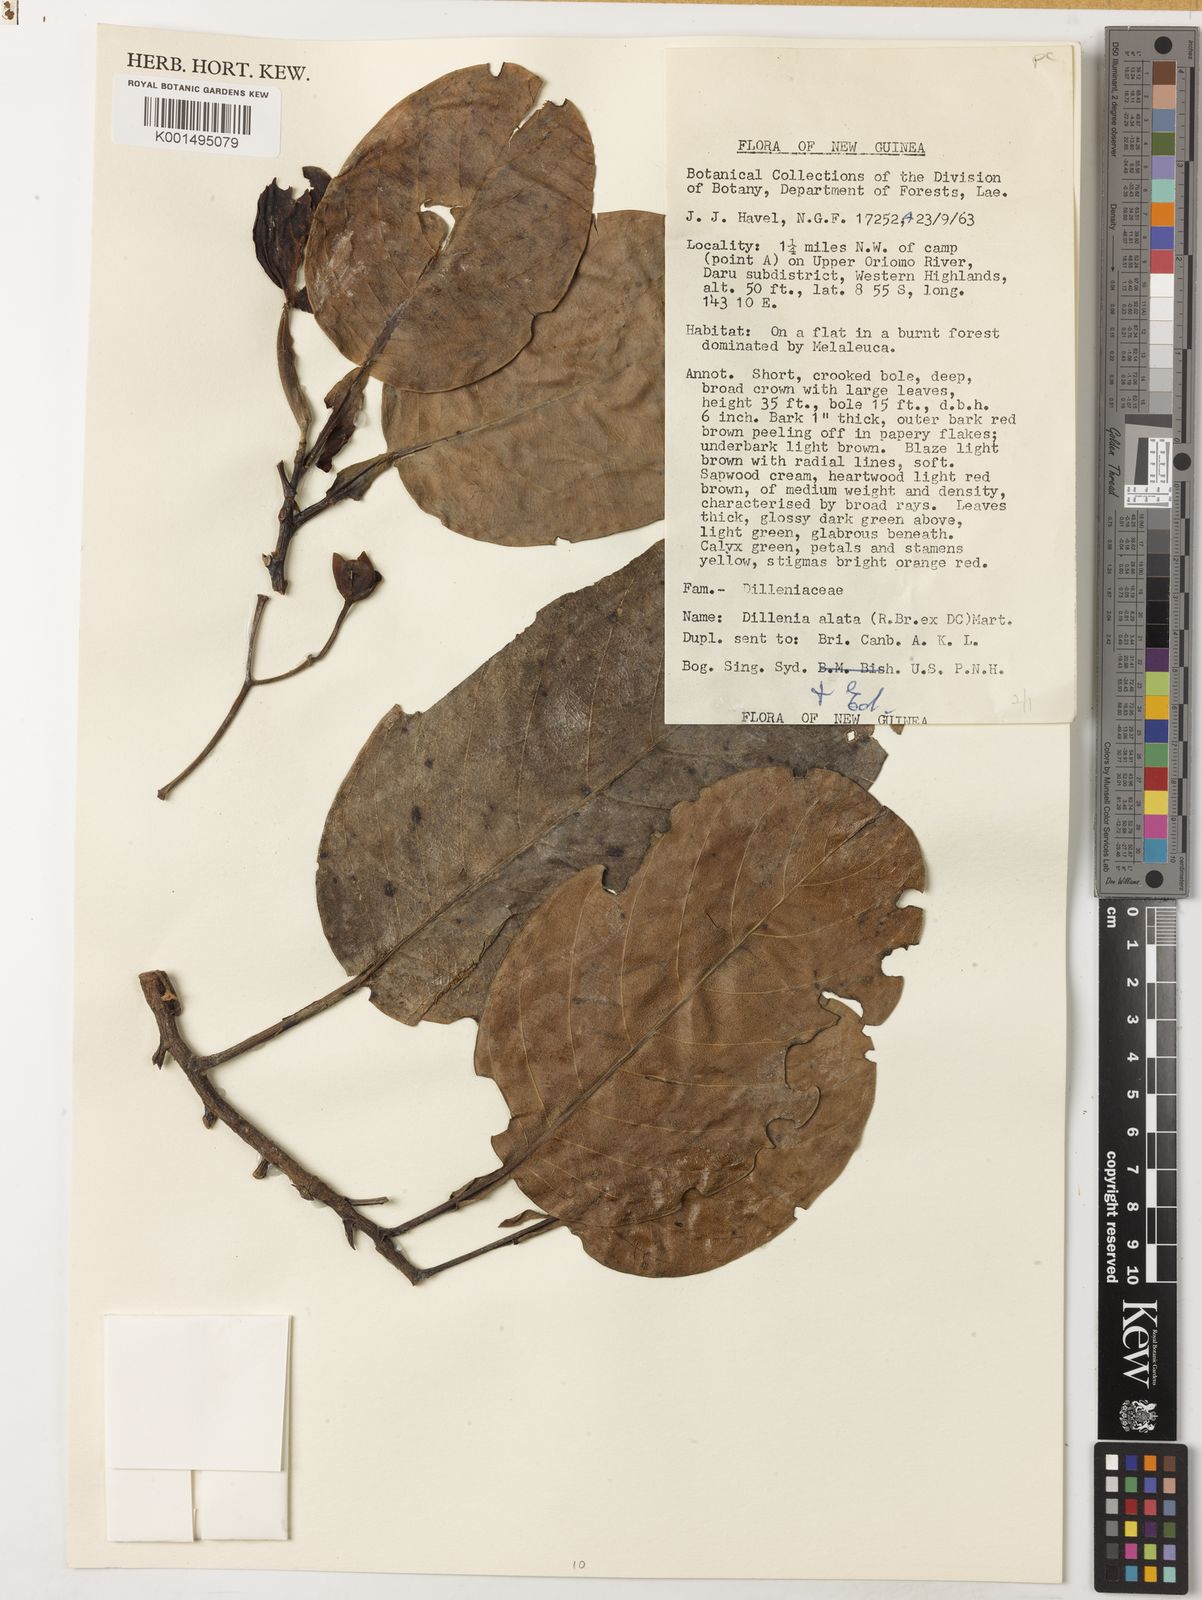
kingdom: Plantae
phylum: Tracheophyta
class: Magnoliopsida
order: Dilleniales
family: Dilleniaceae
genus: Dillenia
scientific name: Dillenia alata
